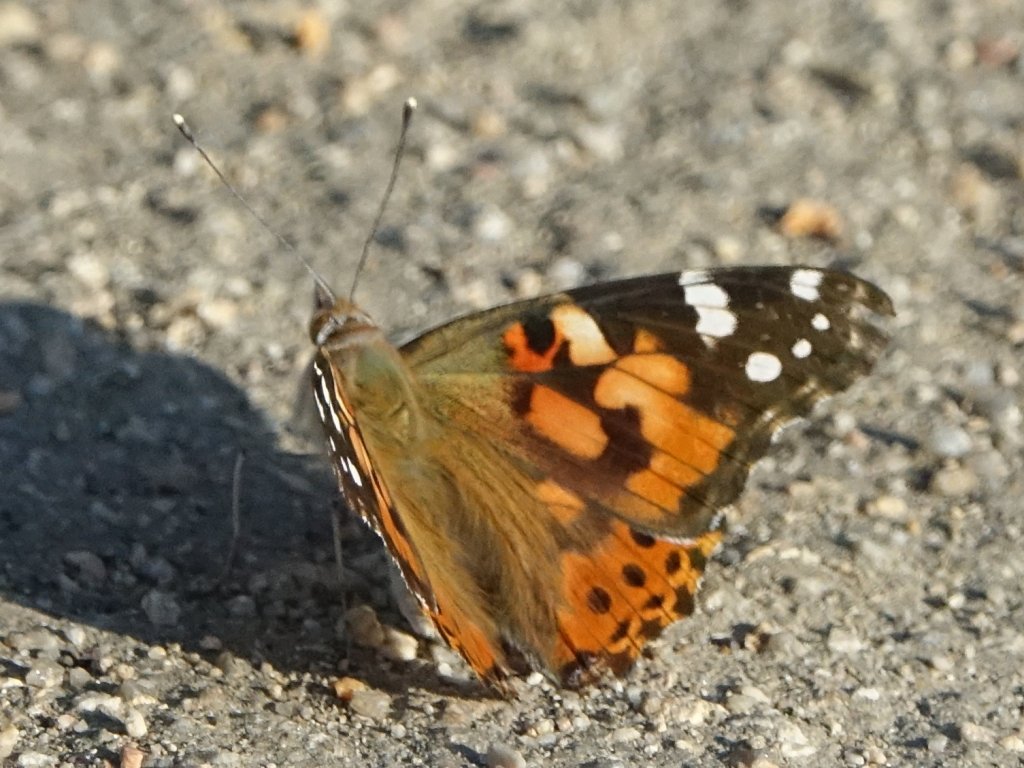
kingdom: Animalia
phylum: Arthropoda
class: Insecta
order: Lepidoptera
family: Nymphalidae
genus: Vanessa
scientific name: Vanessa cardui
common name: Painted Lady
